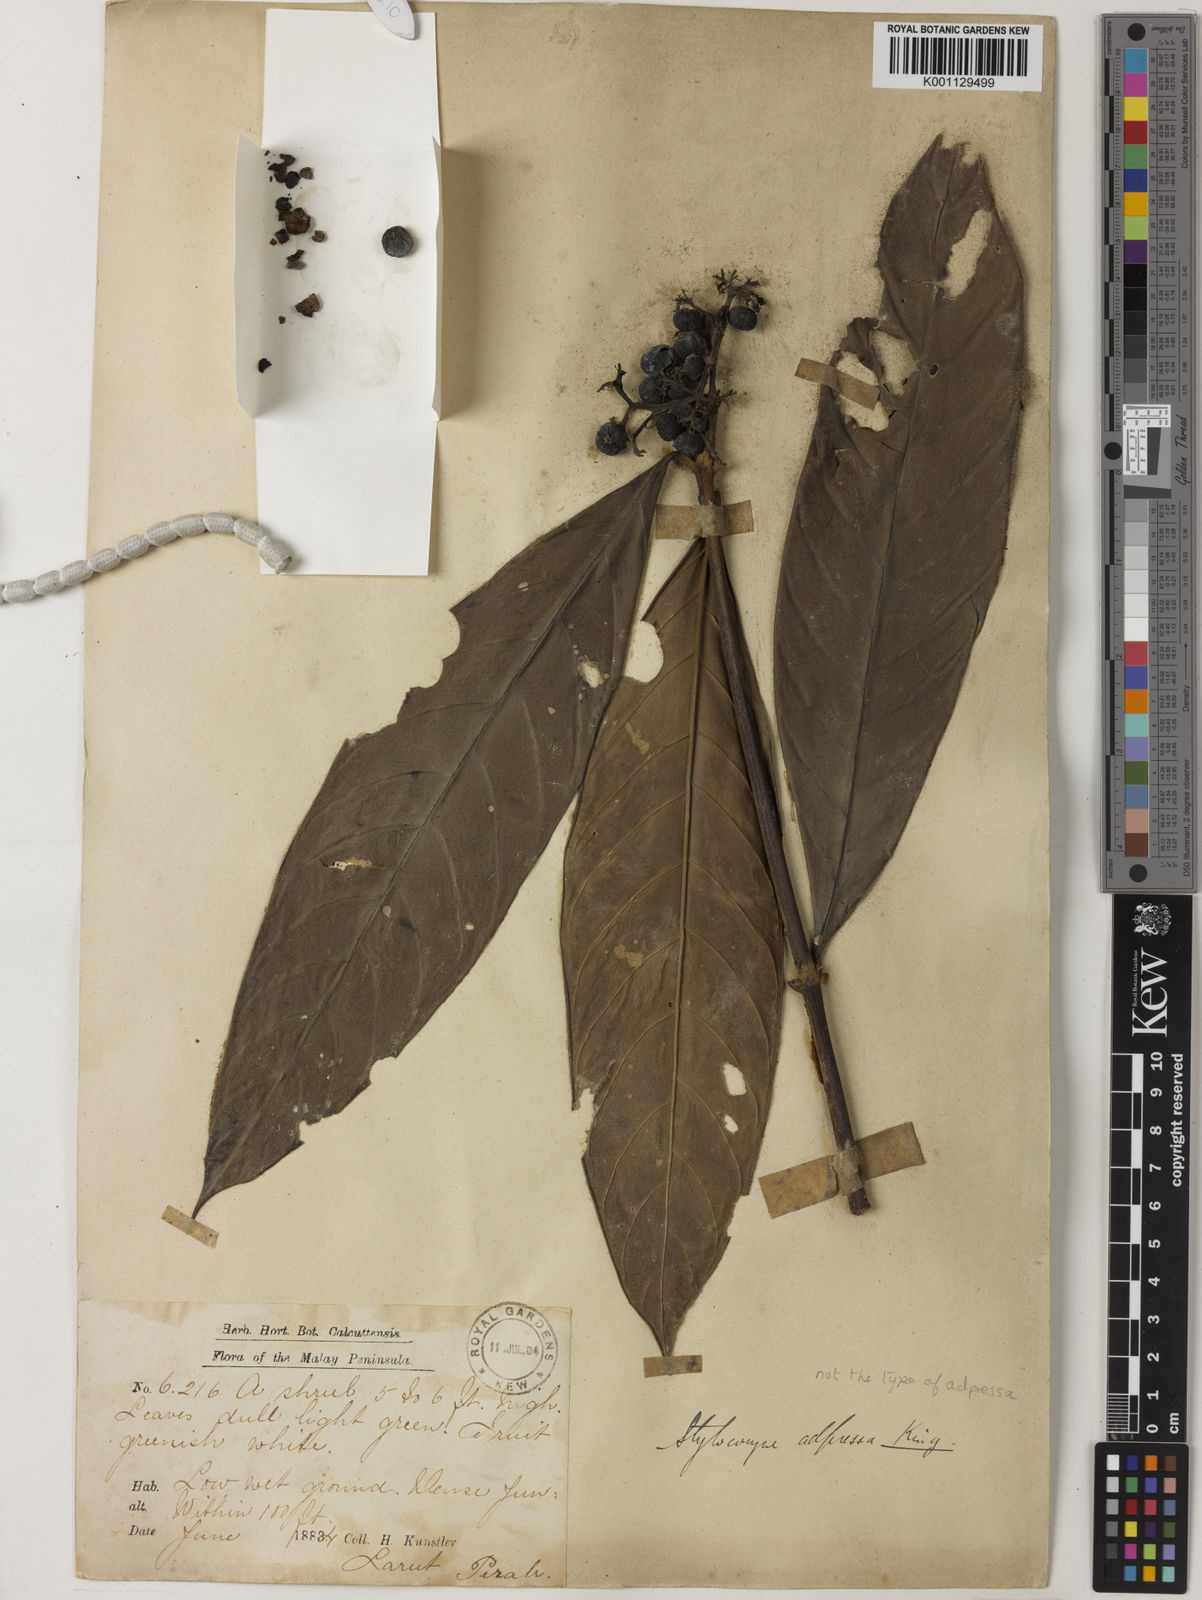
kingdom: Plantae
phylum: Tracheophyta
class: Magnoliopsida
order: Gentianales
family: Rubiaceae
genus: Tarenna
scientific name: Tarenna adpressa
